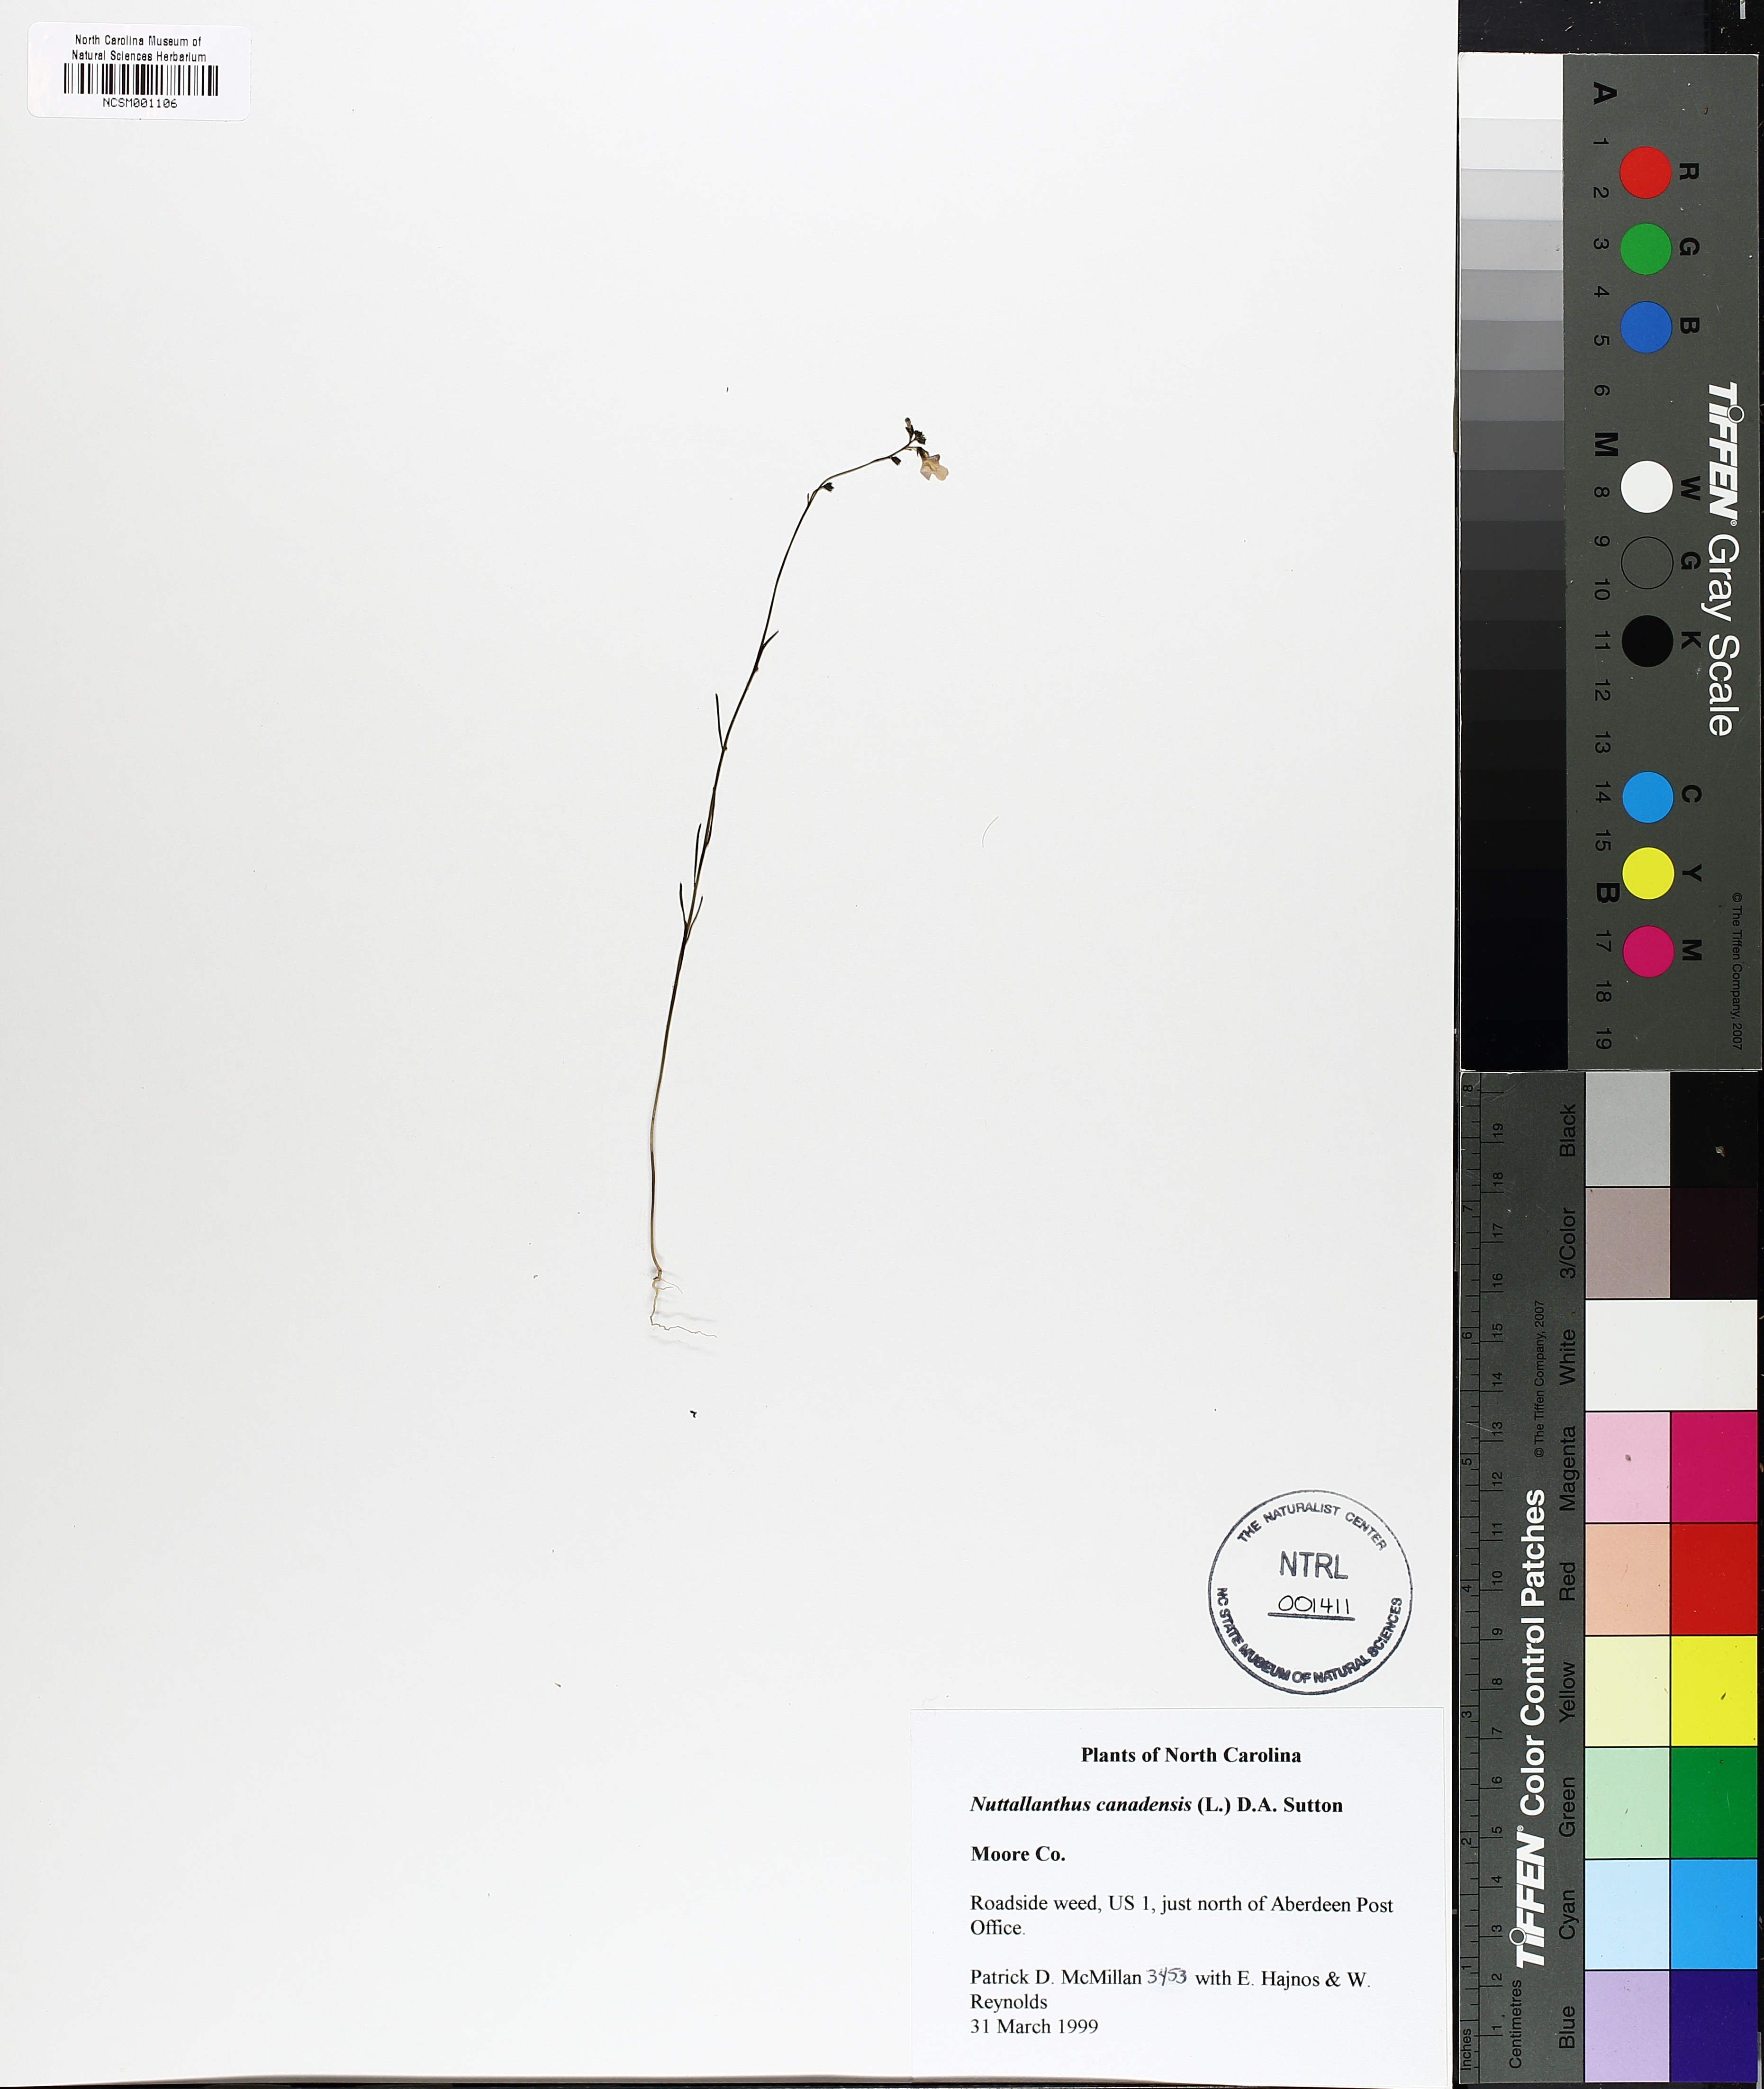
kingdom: Plantae
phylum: Tracheophyta
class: Magnoliopsida
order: Lamiales
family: Plantaginaceae
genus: Nuttallanthus
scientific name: Nuttallanthus canadensis
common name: Blue toadflax
